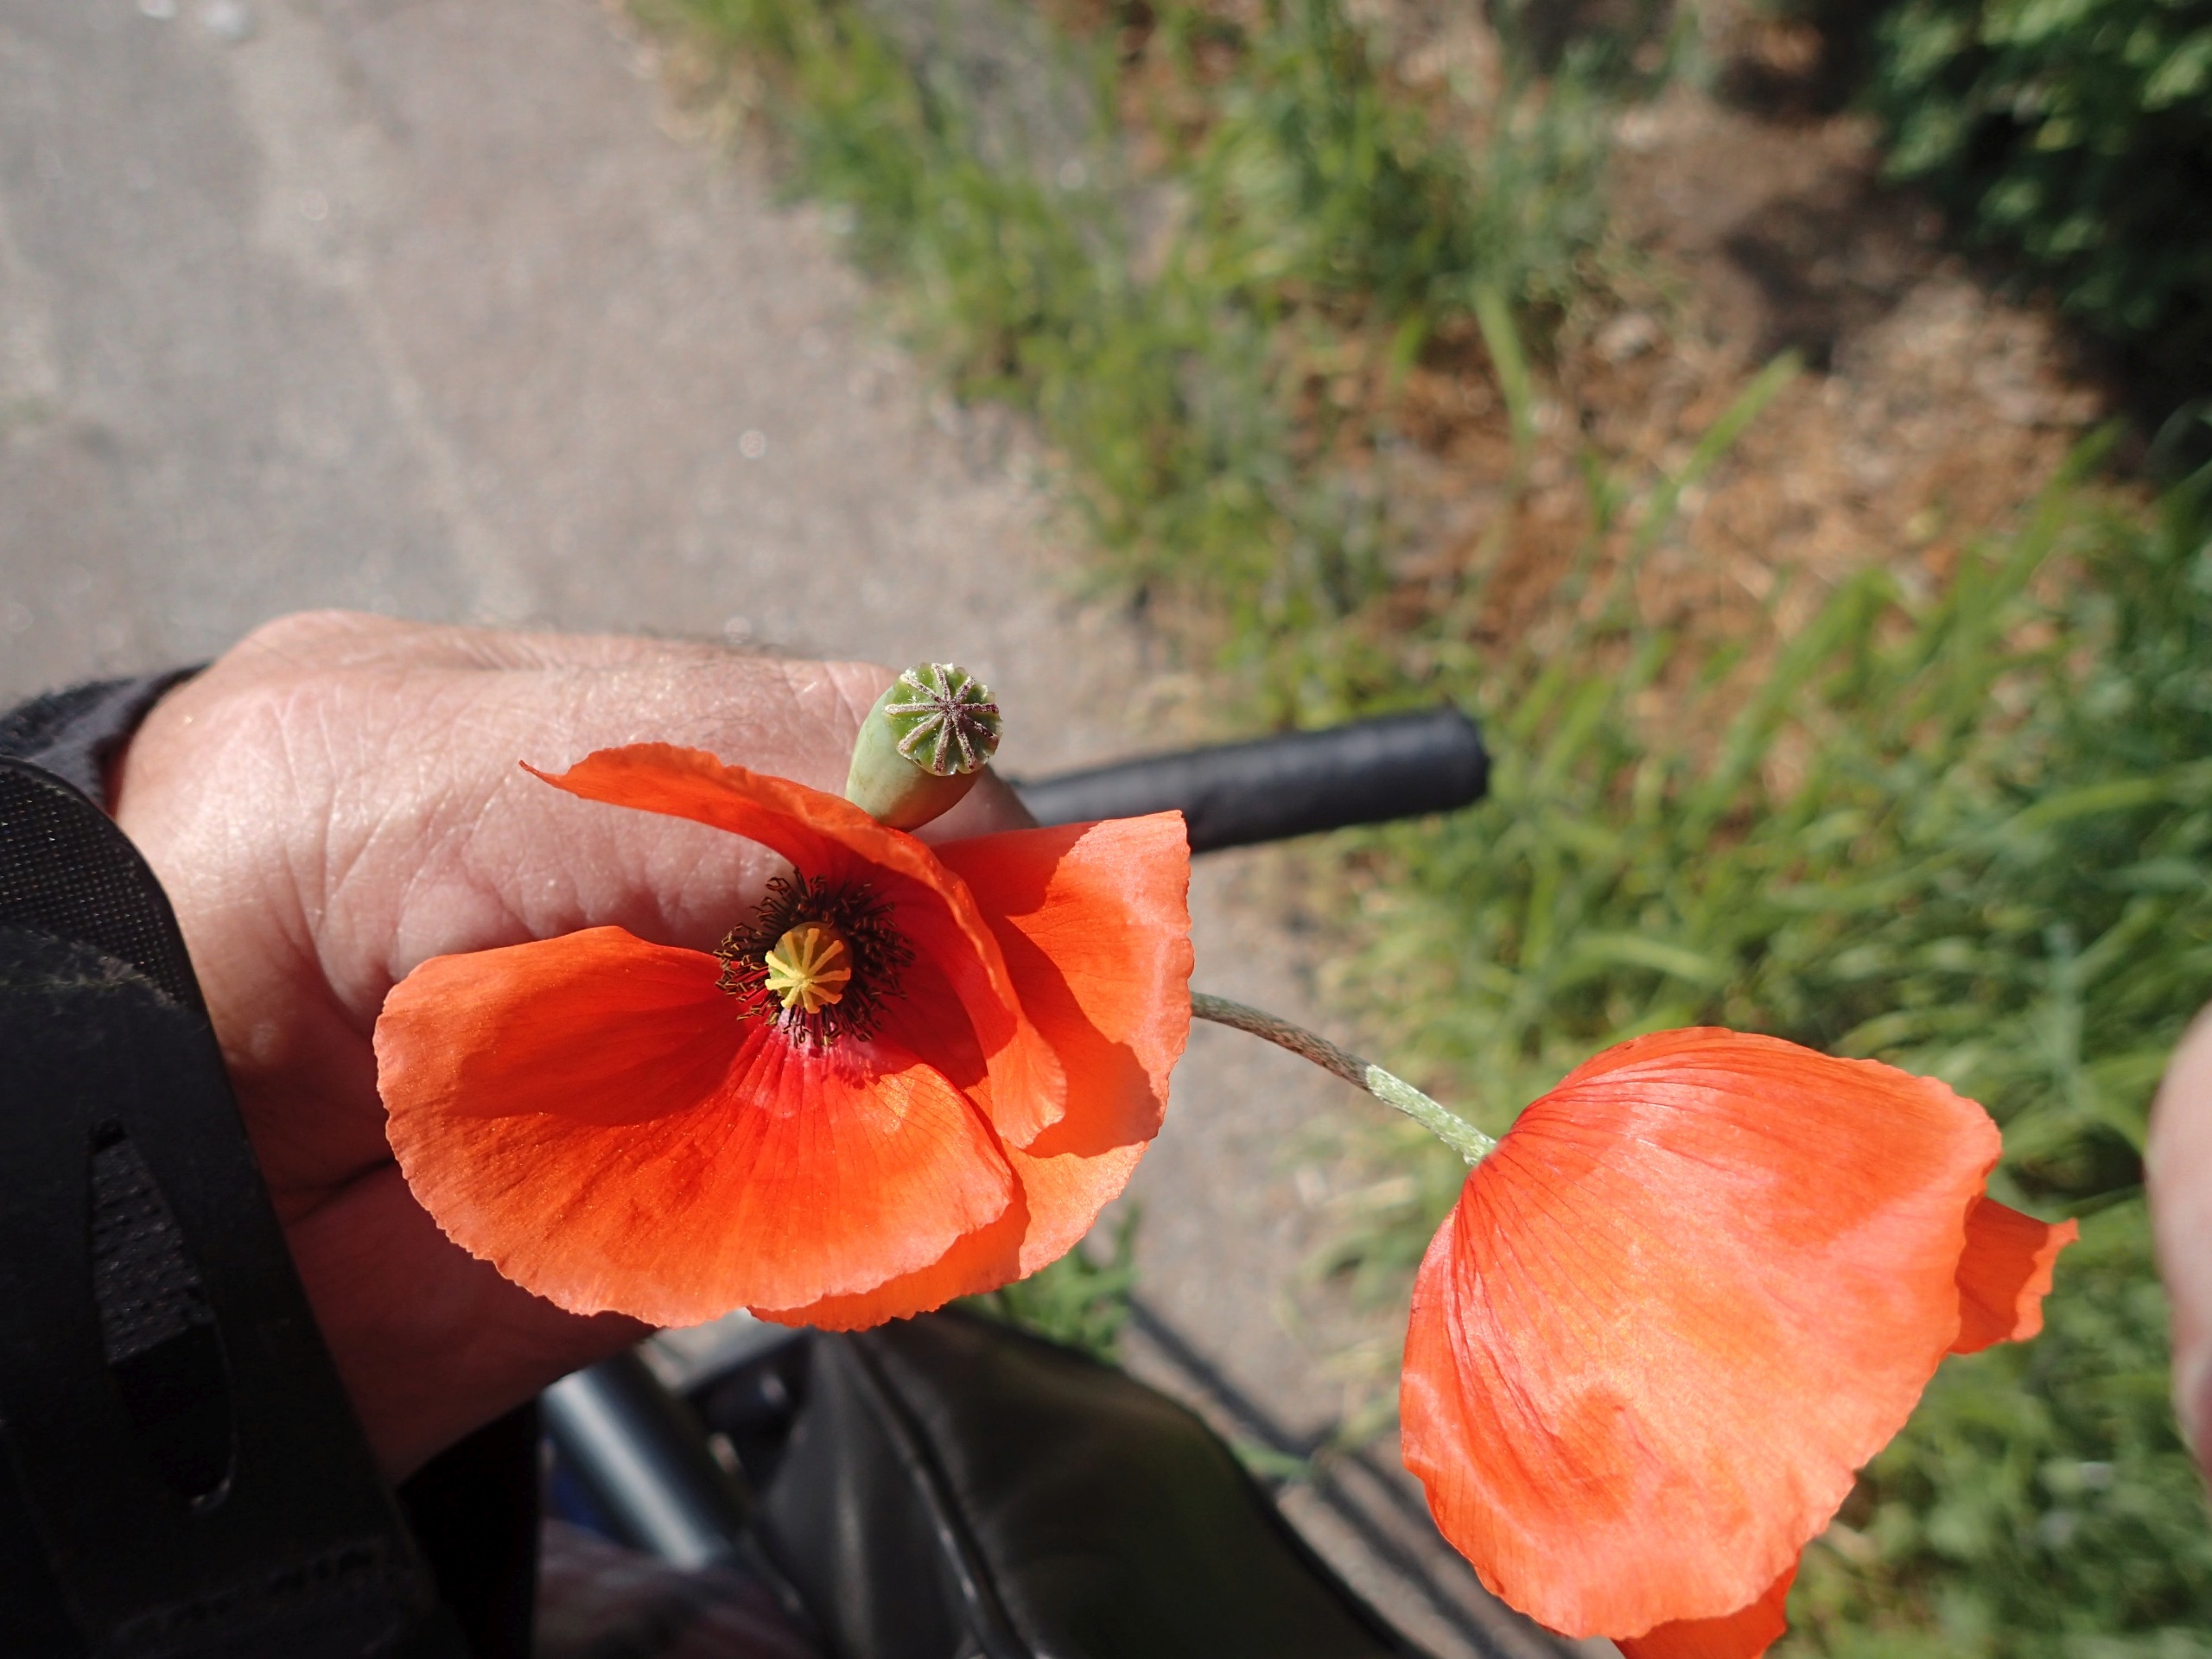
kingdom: Plantae
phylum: Tracheophyta
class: Magnoliopsida
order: Ranunculales
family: Papaveraceae
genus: Papaver
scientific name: Papaver dubium
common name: Gærde-valmue
